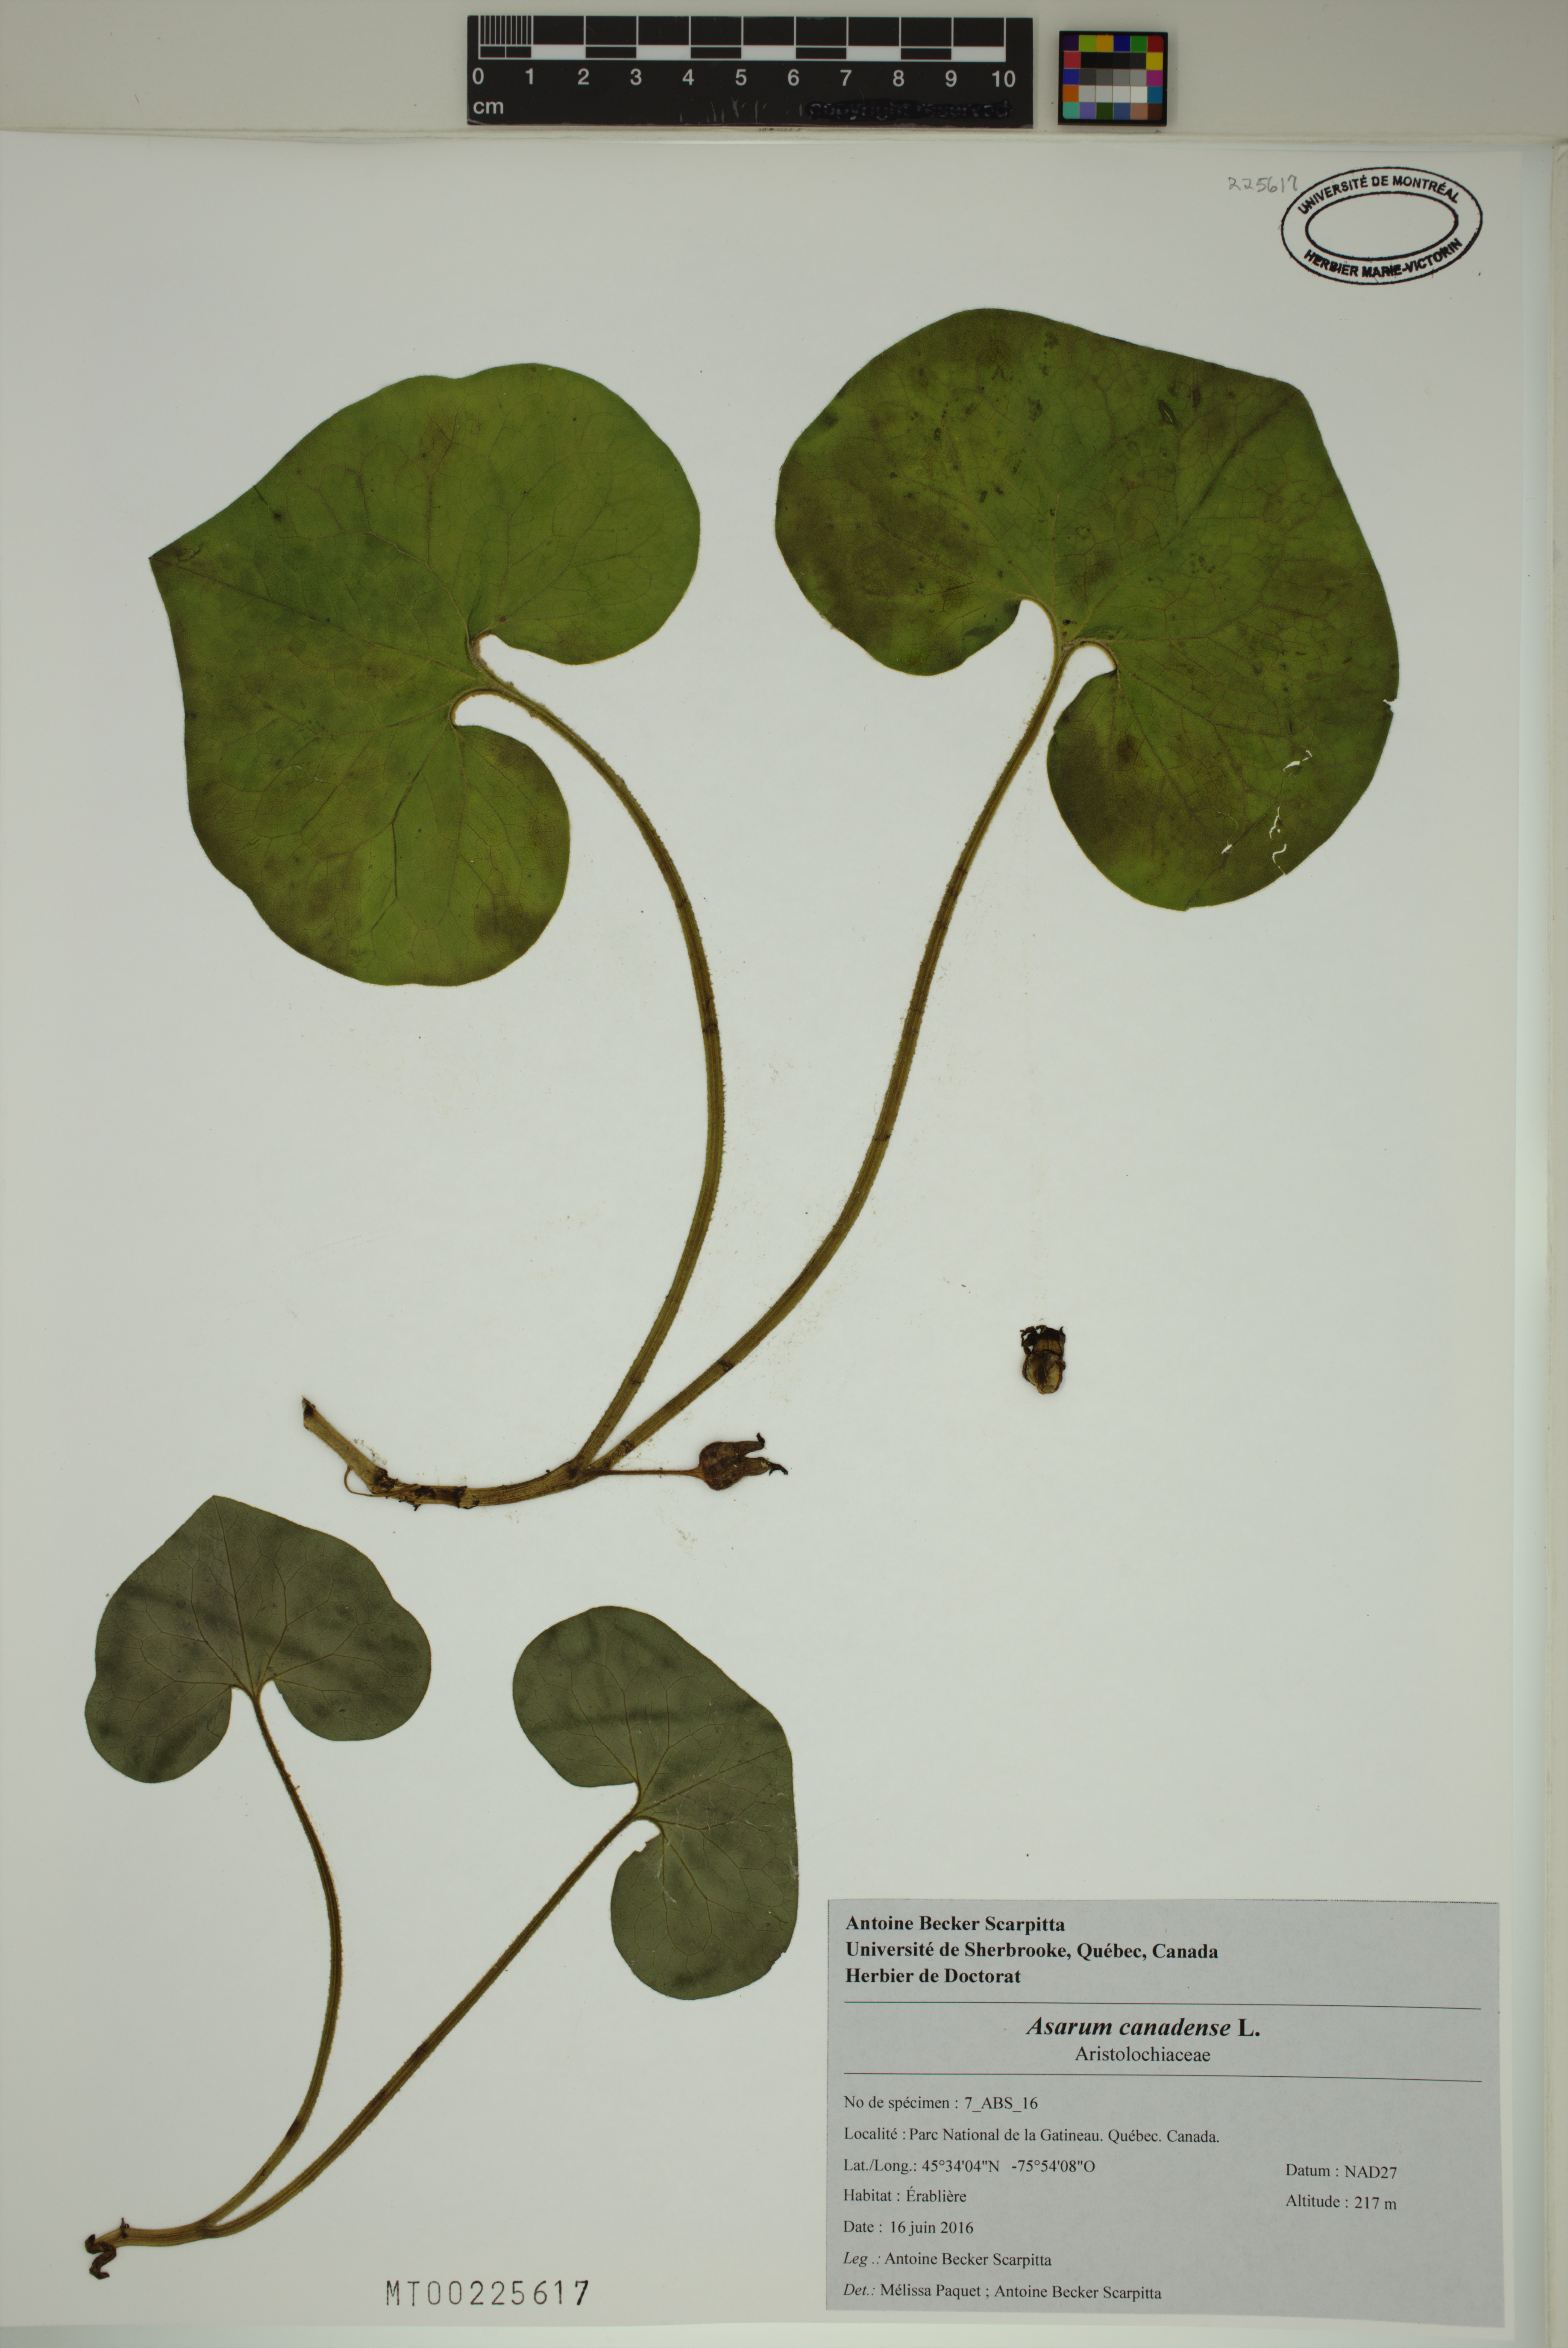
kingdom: Plantae
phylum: Tracheophyta
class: Magnoliopsida
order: Piperales
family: Aristolochiaceae
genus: Asarum
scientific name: Asarum canadense
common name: Wild ginger
